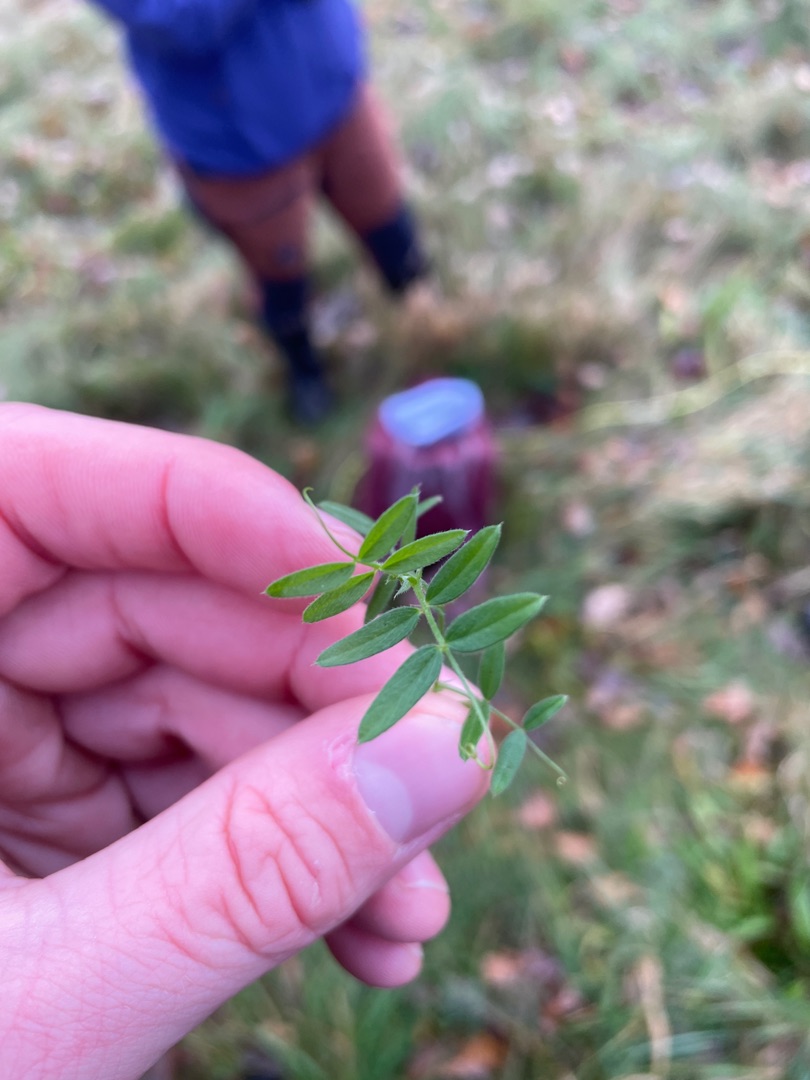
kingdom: Plantae
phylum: Tracheophyta
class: Magnoliopsida
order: Fabales
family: Fabaceae
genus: Vicia
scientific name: Vicia
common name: Vikkeslægten
